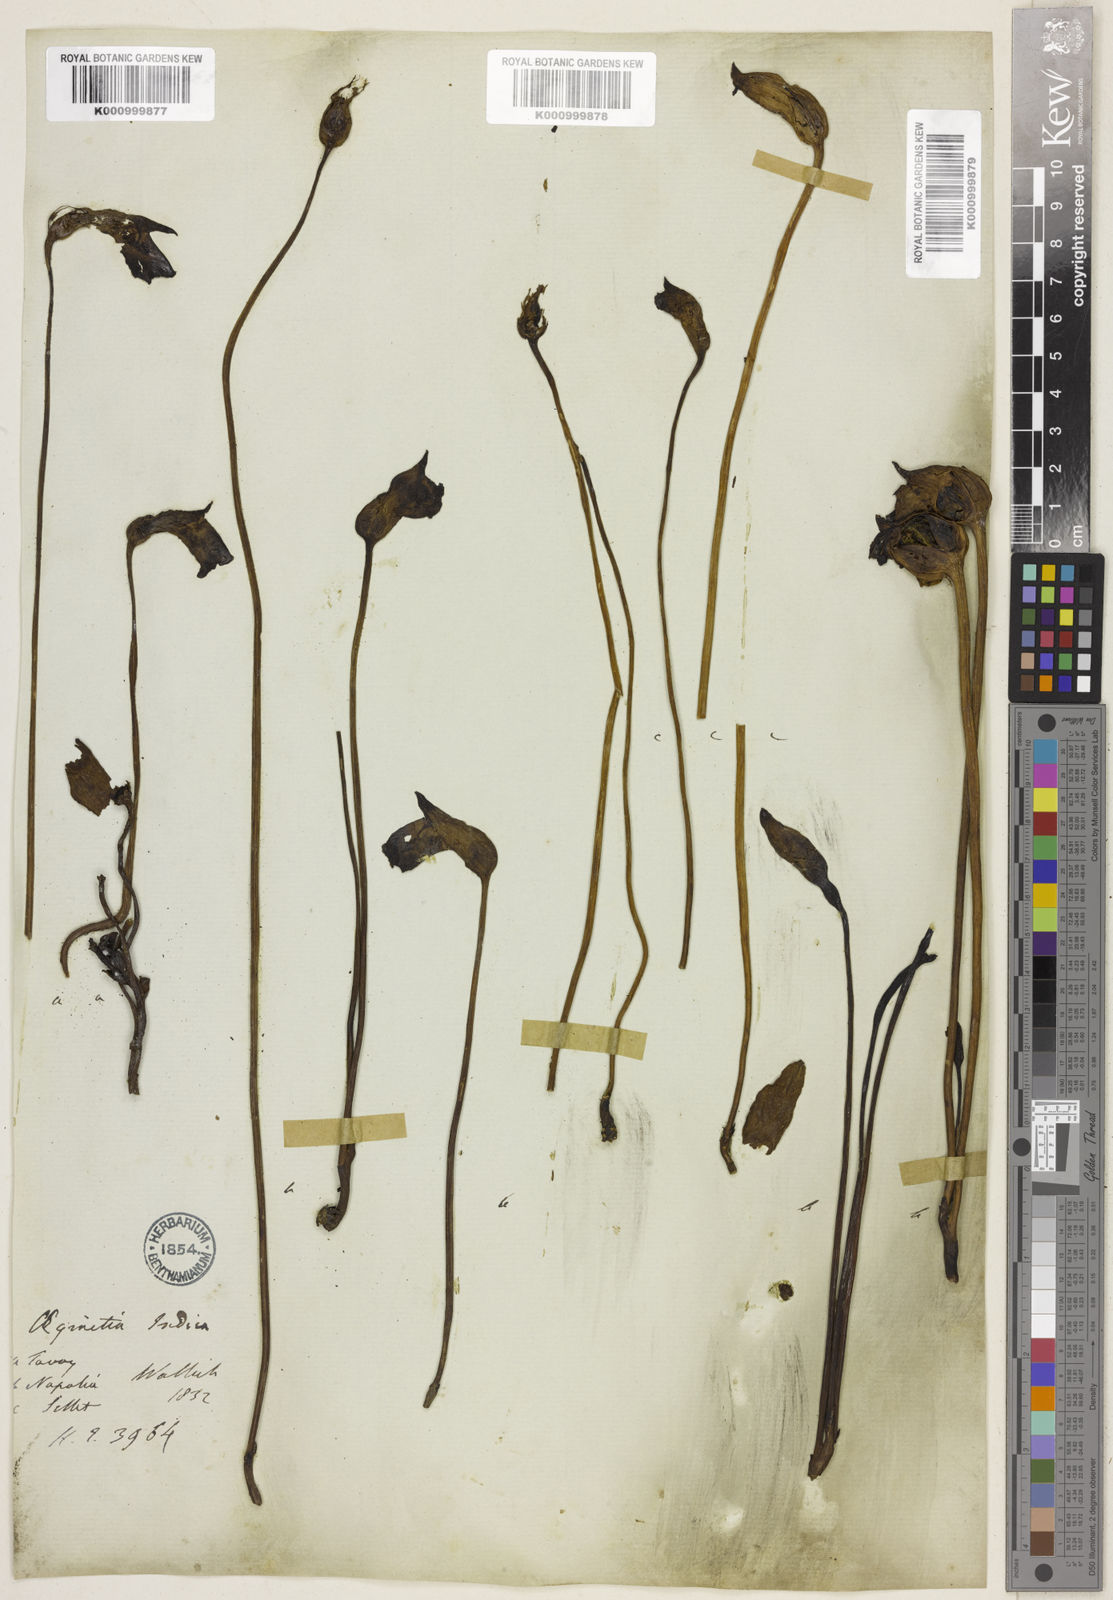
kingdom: Plantae
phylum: Tracheophyta
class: Magnoliopsida
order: Lamiales
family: Orobanchaceae
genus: Aeginetia
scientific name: Aeginetia
